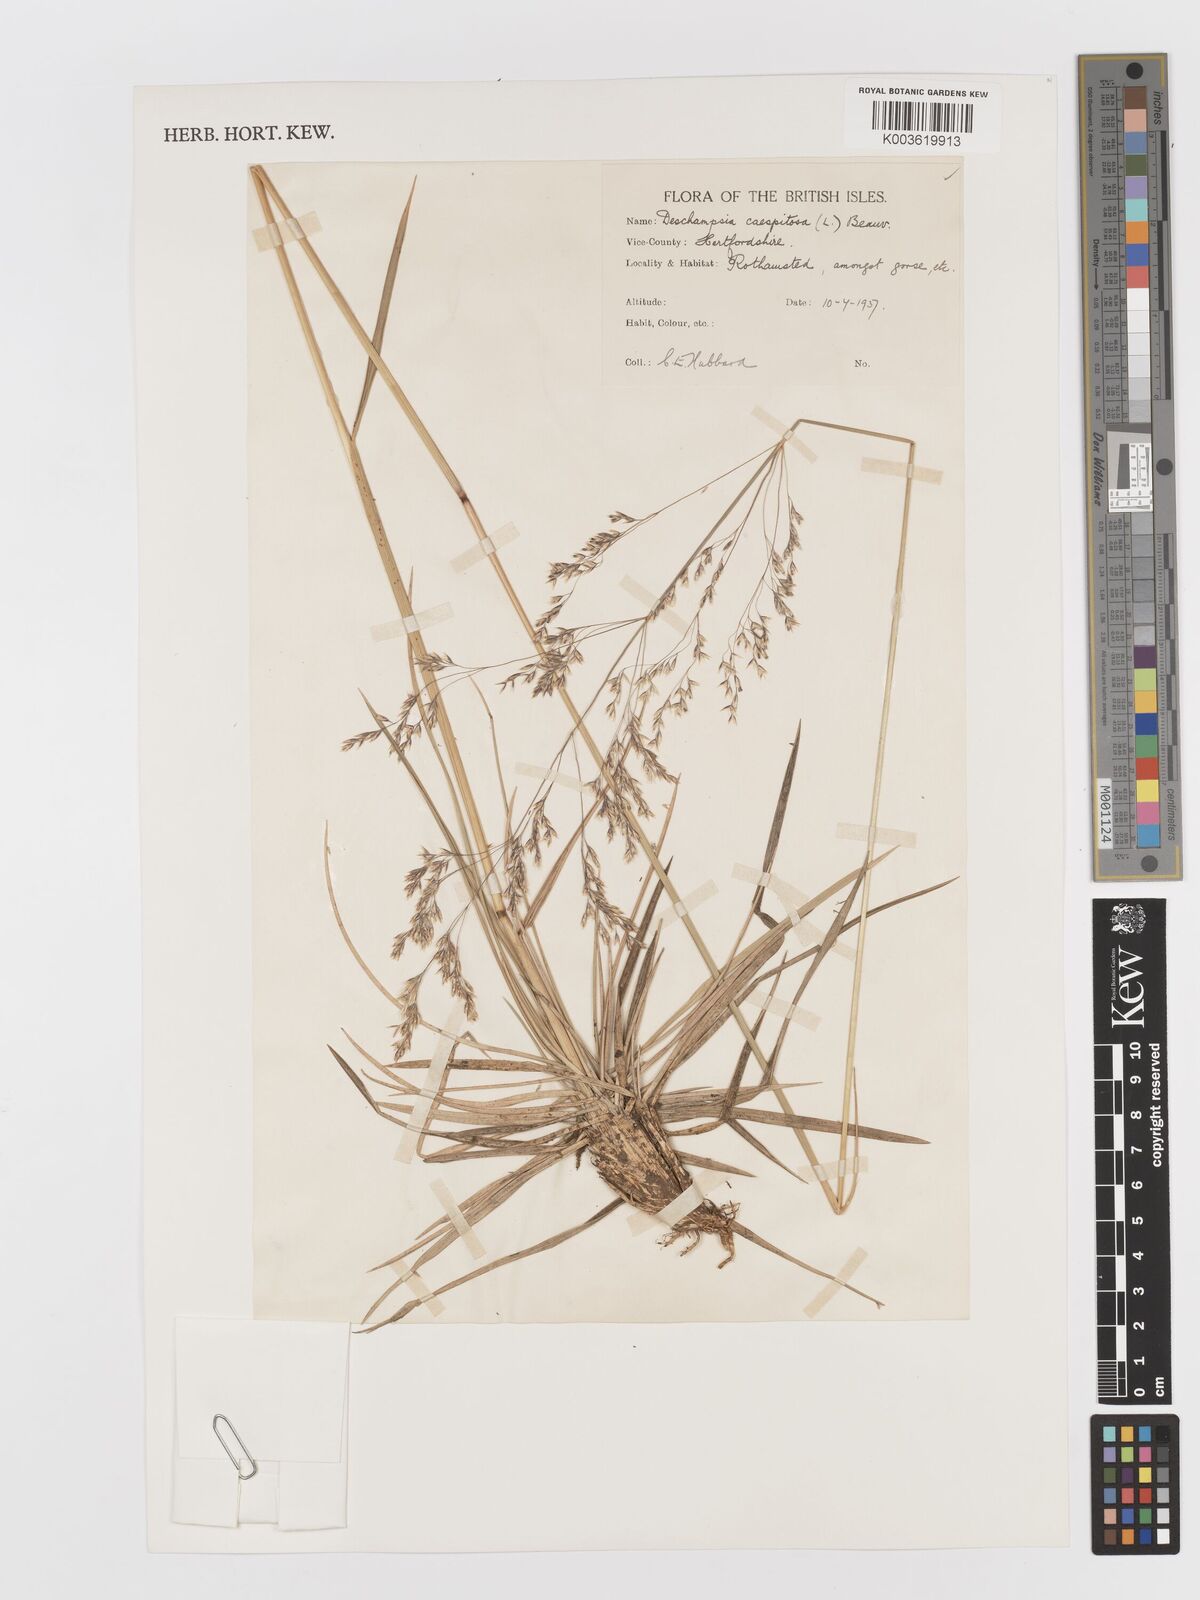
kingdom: Plantae
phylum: Tracheophyta
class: Liliopsida
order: Poales
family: Poaceae
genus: Deschampsia
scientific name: Deschampsia cespitosa
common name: Tufted hair-grass
